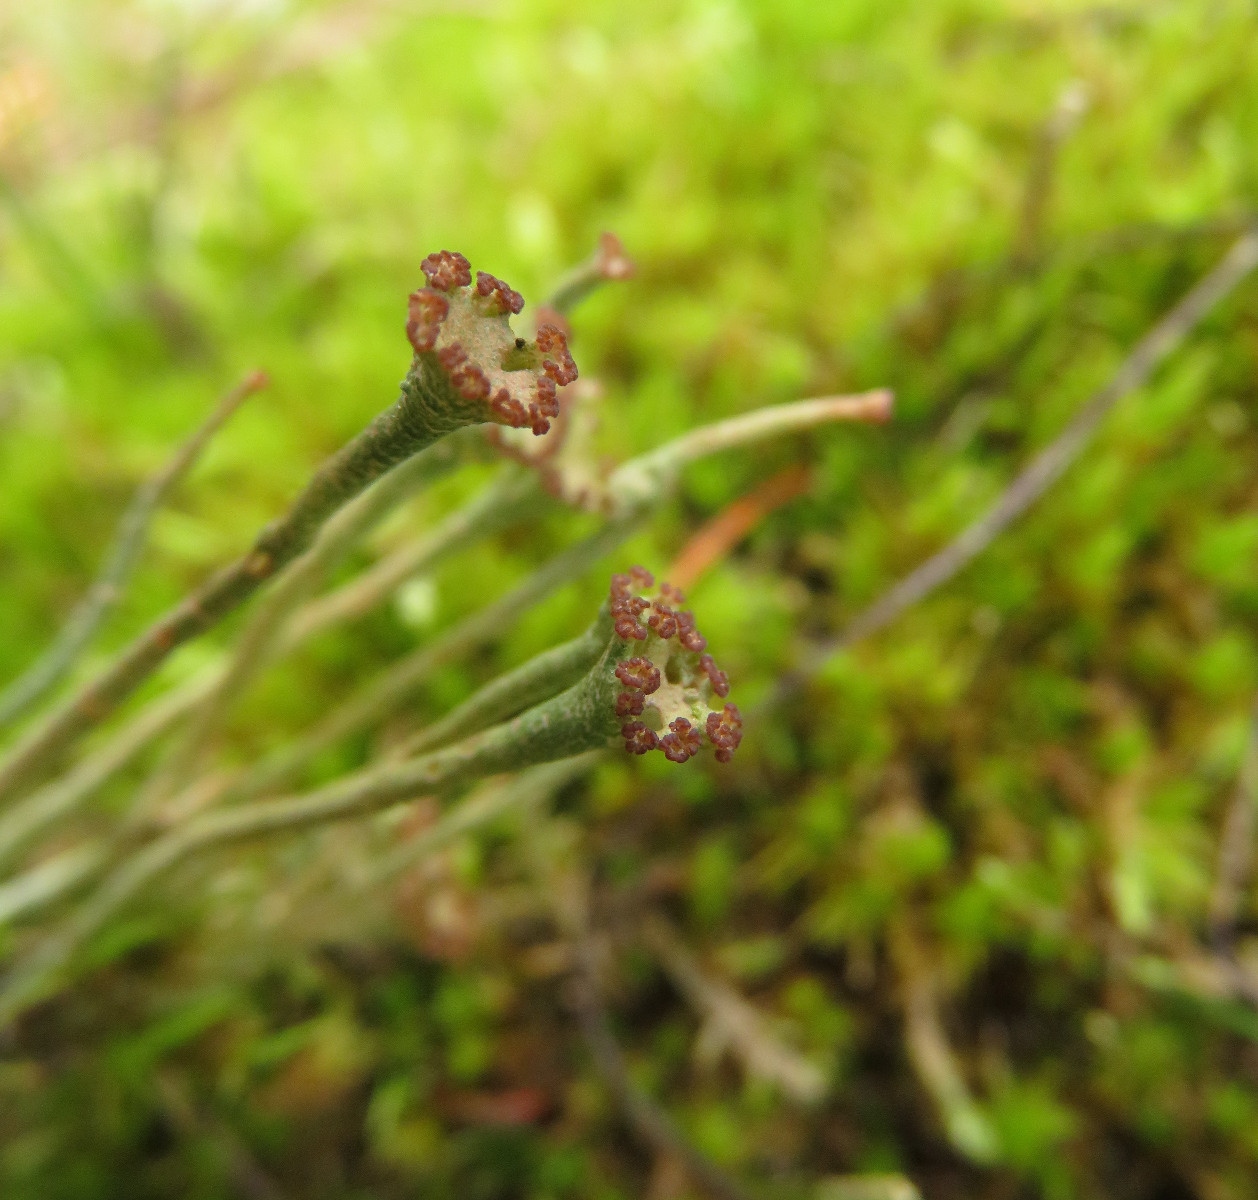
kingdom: Fungi
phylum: Ascomycota
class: Lecanoromycetes
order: Lecanorales
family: Cladoniaceae
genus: Cladonia
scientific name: Cladonia gracilis
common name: slank bægerlav
